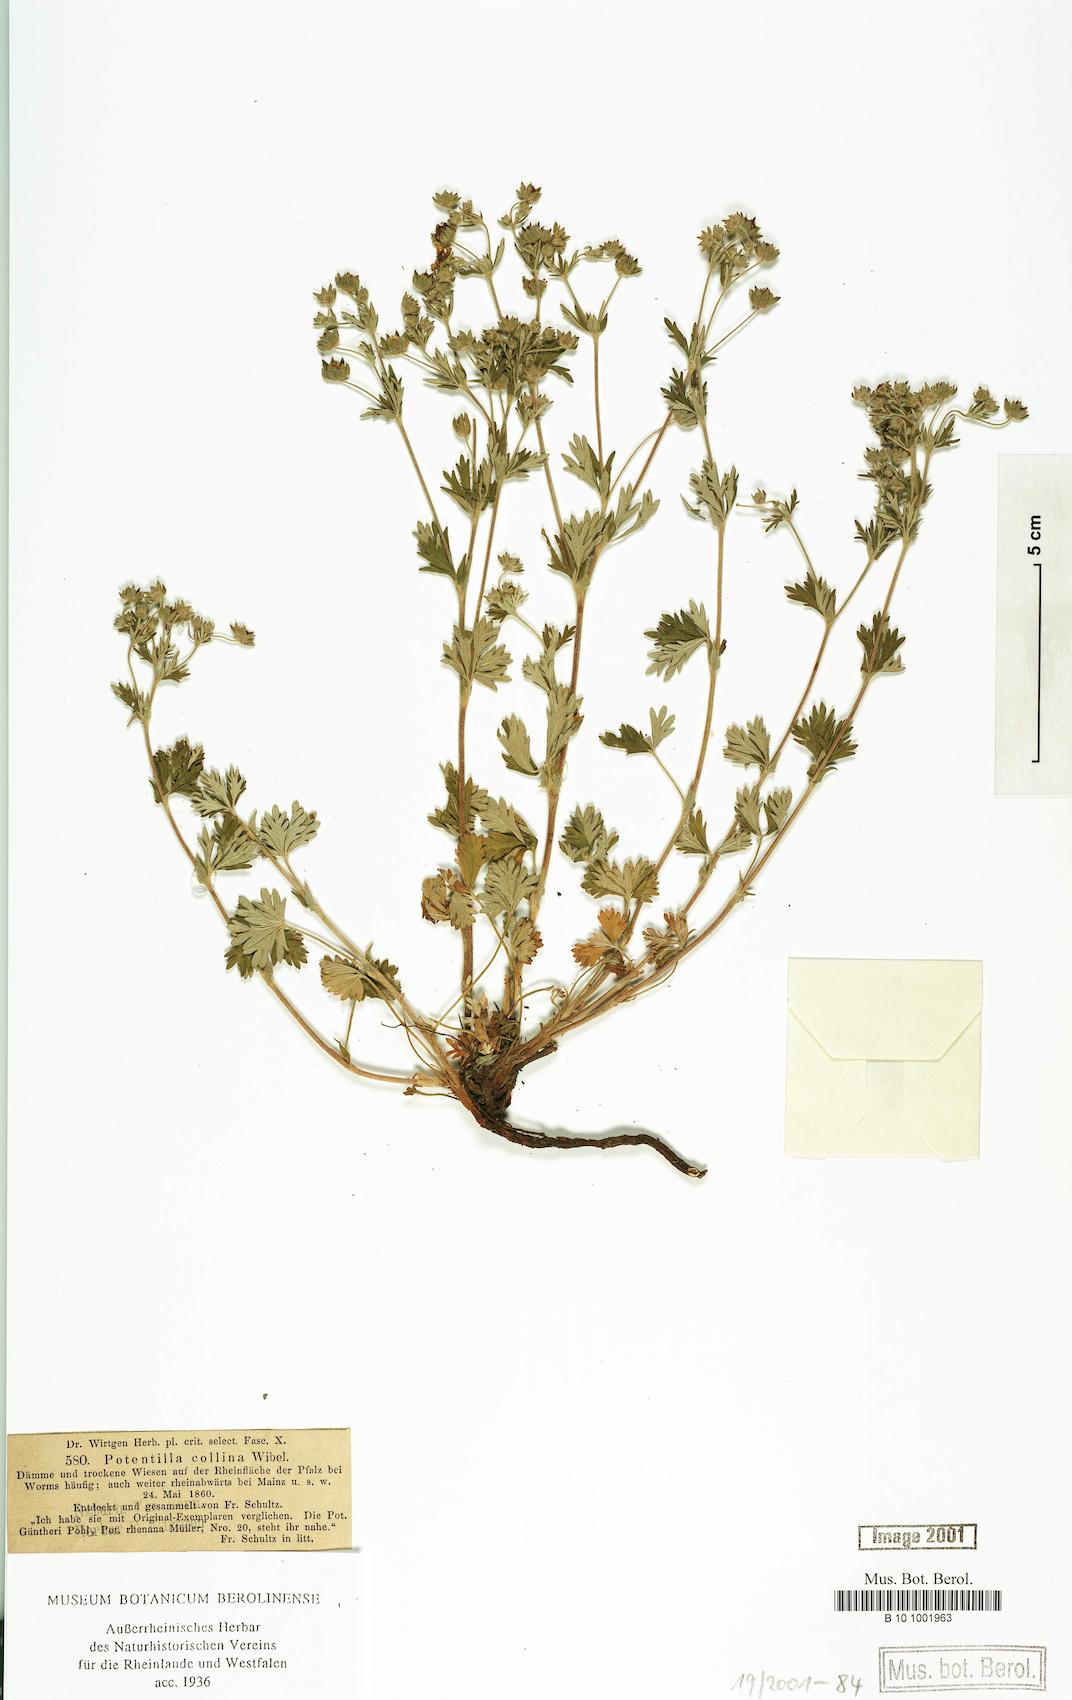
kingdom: Plantae
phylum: Tracheophyta
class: Magnoliopsida
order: Rosales
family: Rosaceae
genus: Potentilla
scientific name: Potentilla schultzii
